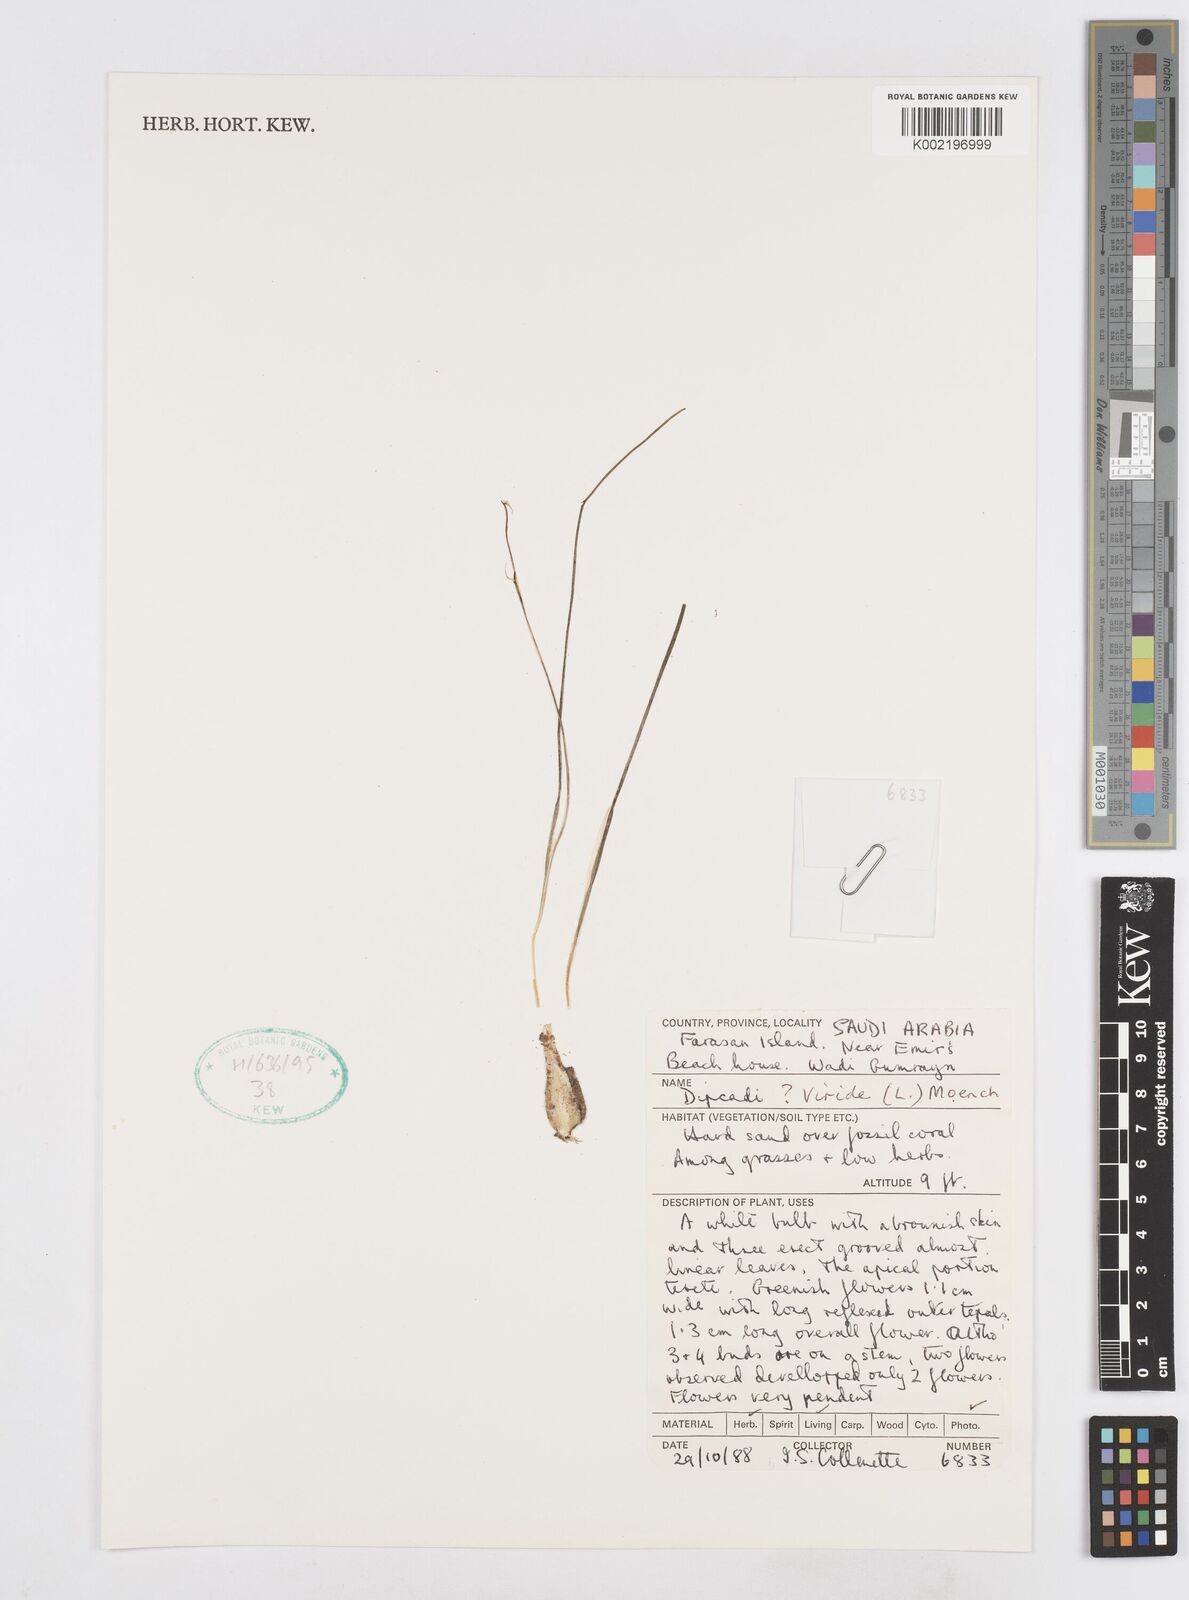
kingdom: Plantae
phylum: Tracheophyta
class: Liliopsida
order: Asparagales
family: Asparagaceae
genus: Dipcadi
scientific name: Dipcadi viride
